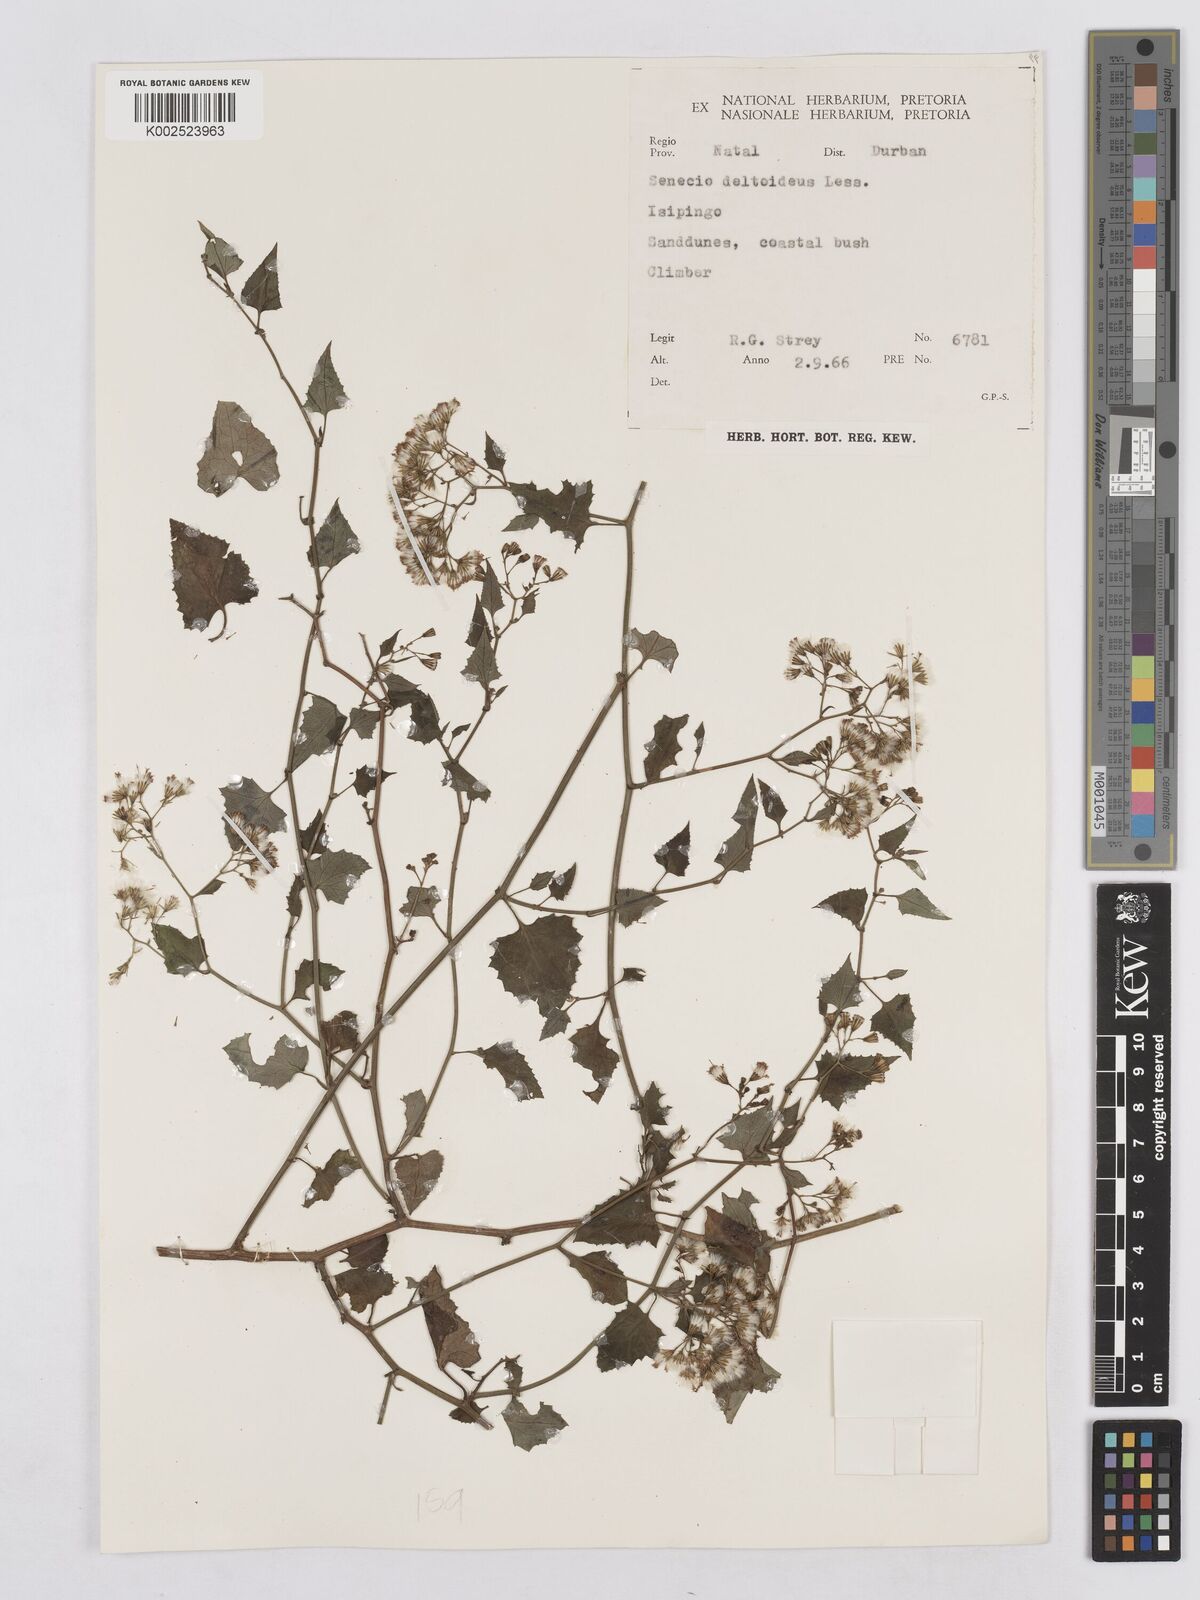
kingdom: Plantae
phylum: Tracheophyta
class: Magnoliopsida
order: Asterales
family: Asteraceae
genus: Senecio
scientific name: Senecio deltoideus
